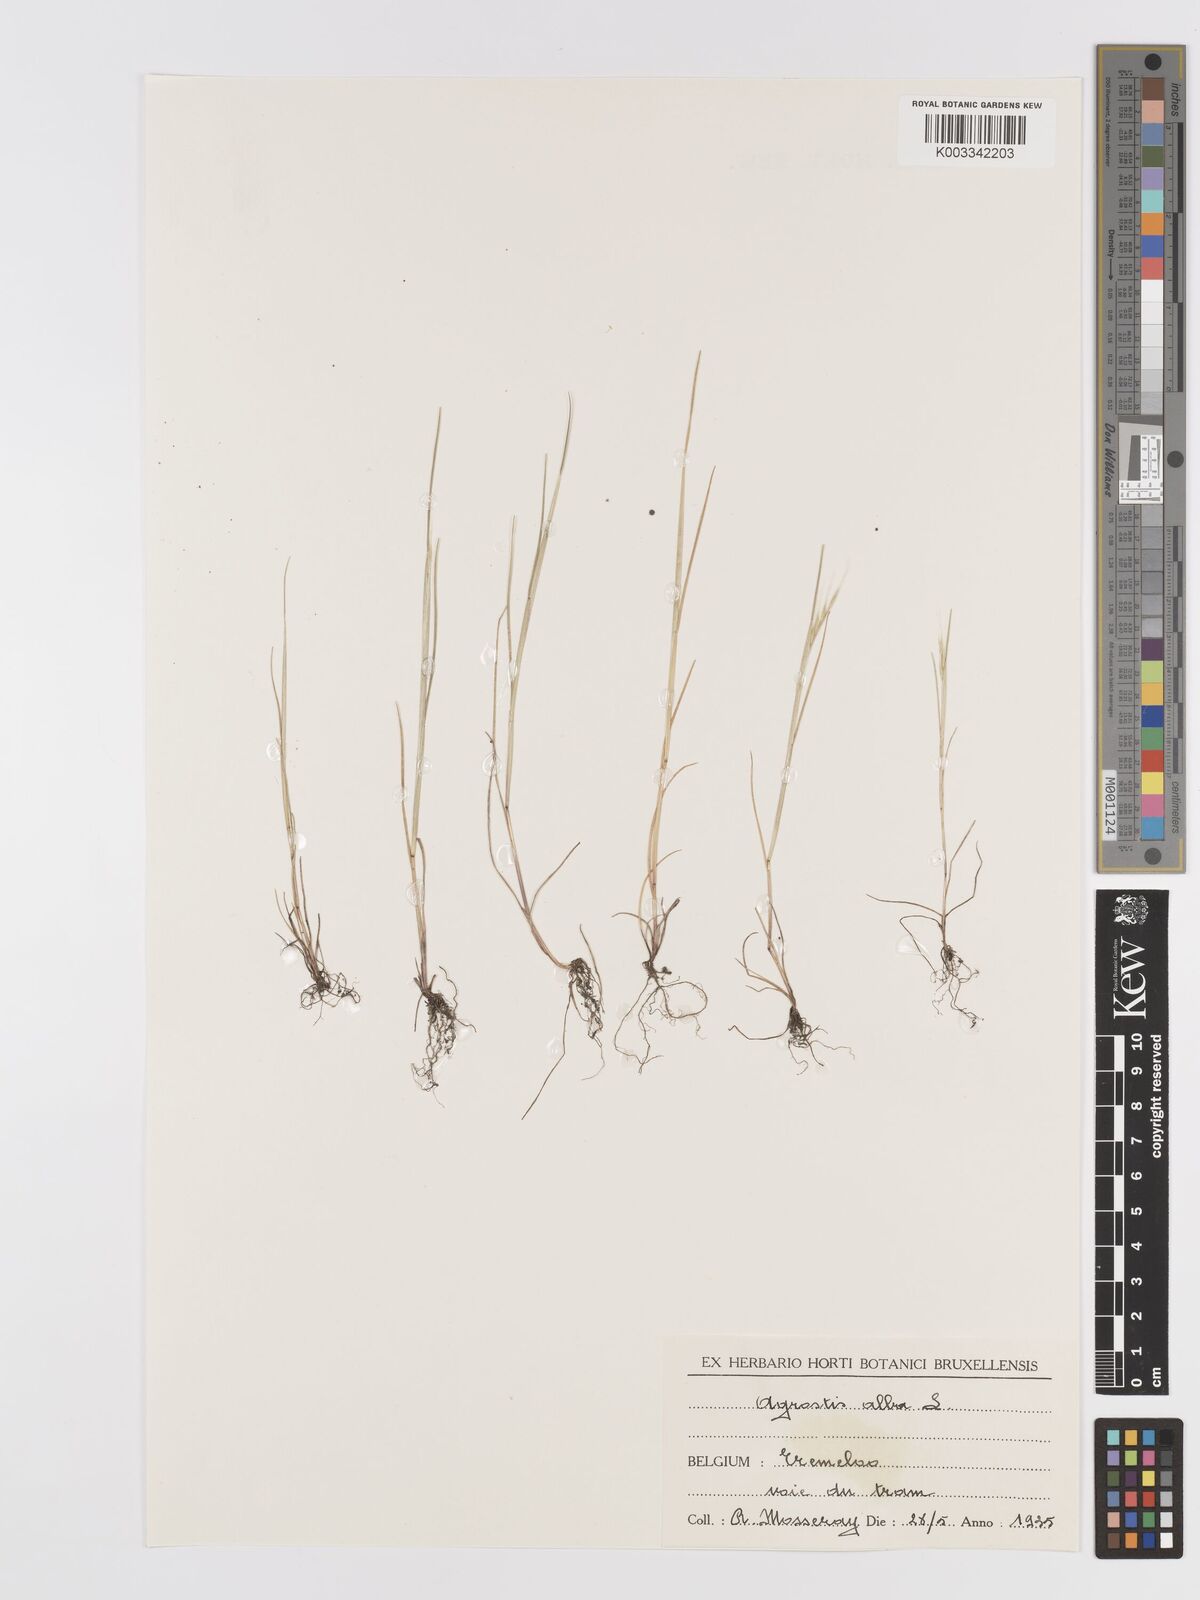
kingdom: Plantae
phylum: Tracheophyta
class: Liliopsida
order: Poales
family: Poaceae
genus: Agrostis
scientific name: Agrostis stolonifera
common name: Creeping bentgrass
